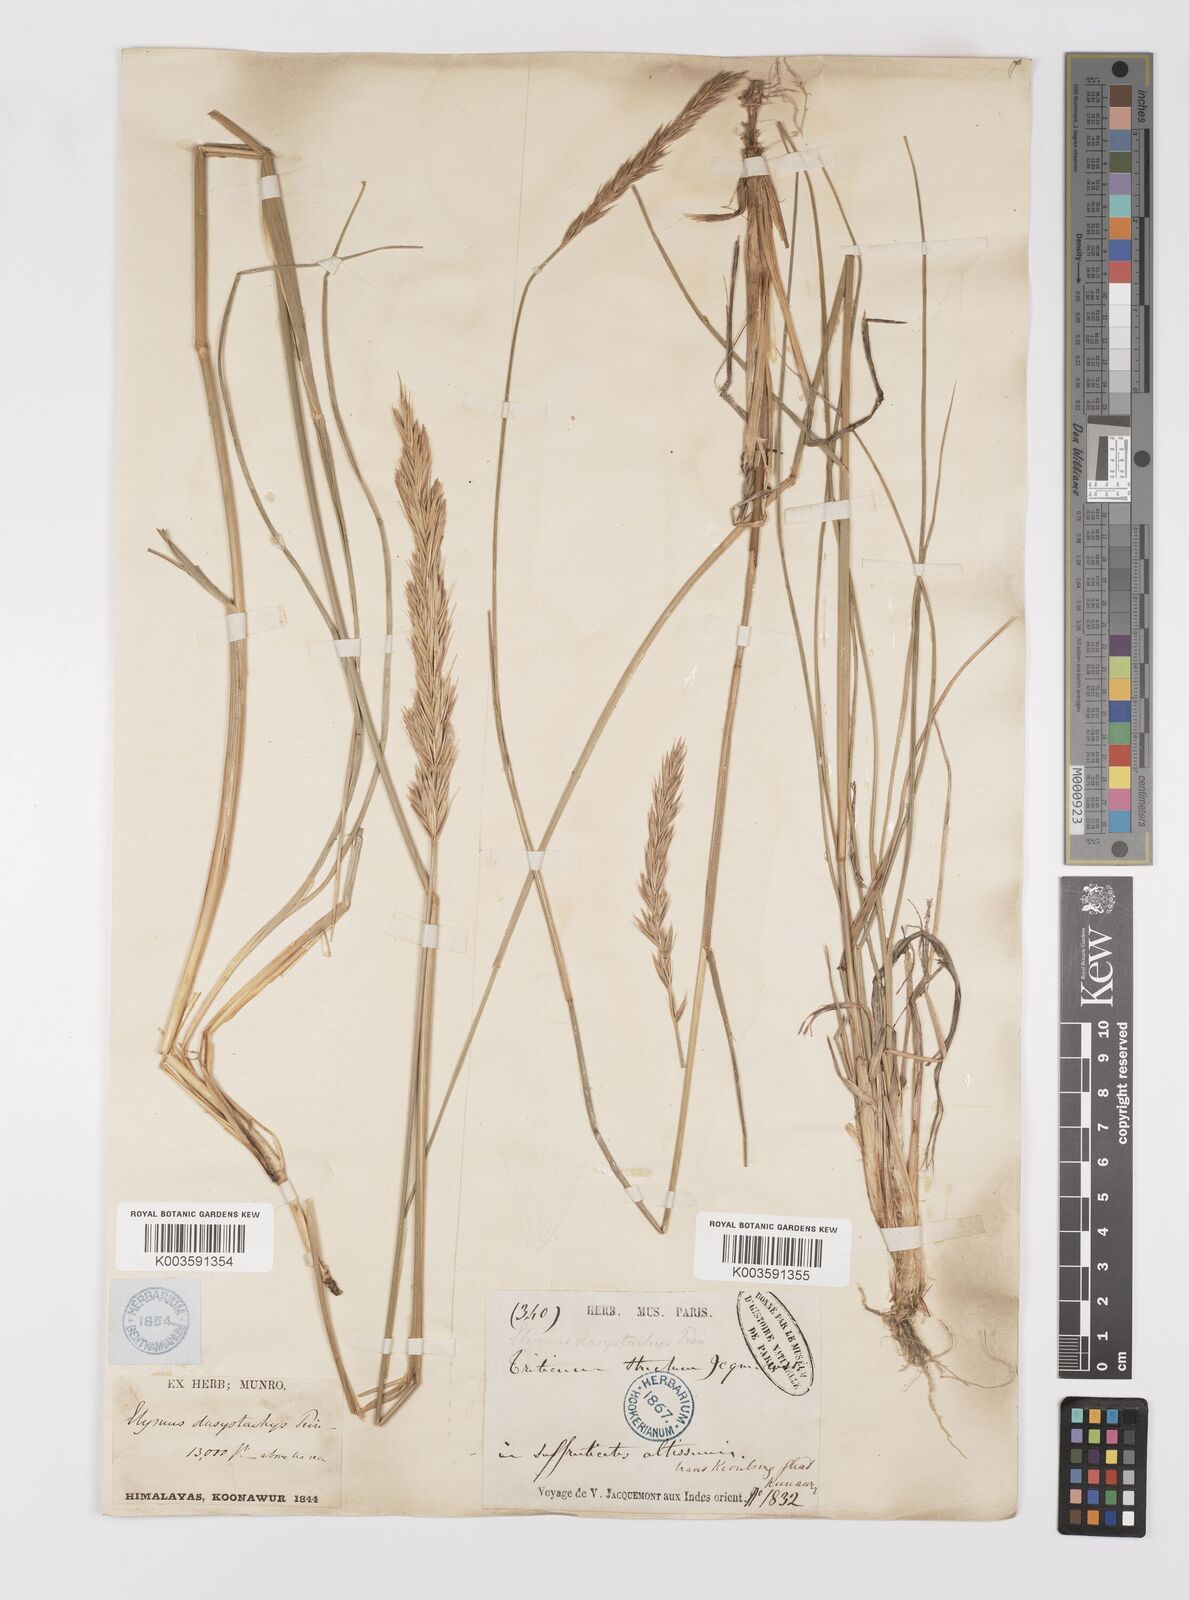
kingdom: Plantae
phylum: Tracheophyta
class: Liliopsida
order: Poales
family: Poaceae
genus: Leymus
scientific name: Leymus secalinus
